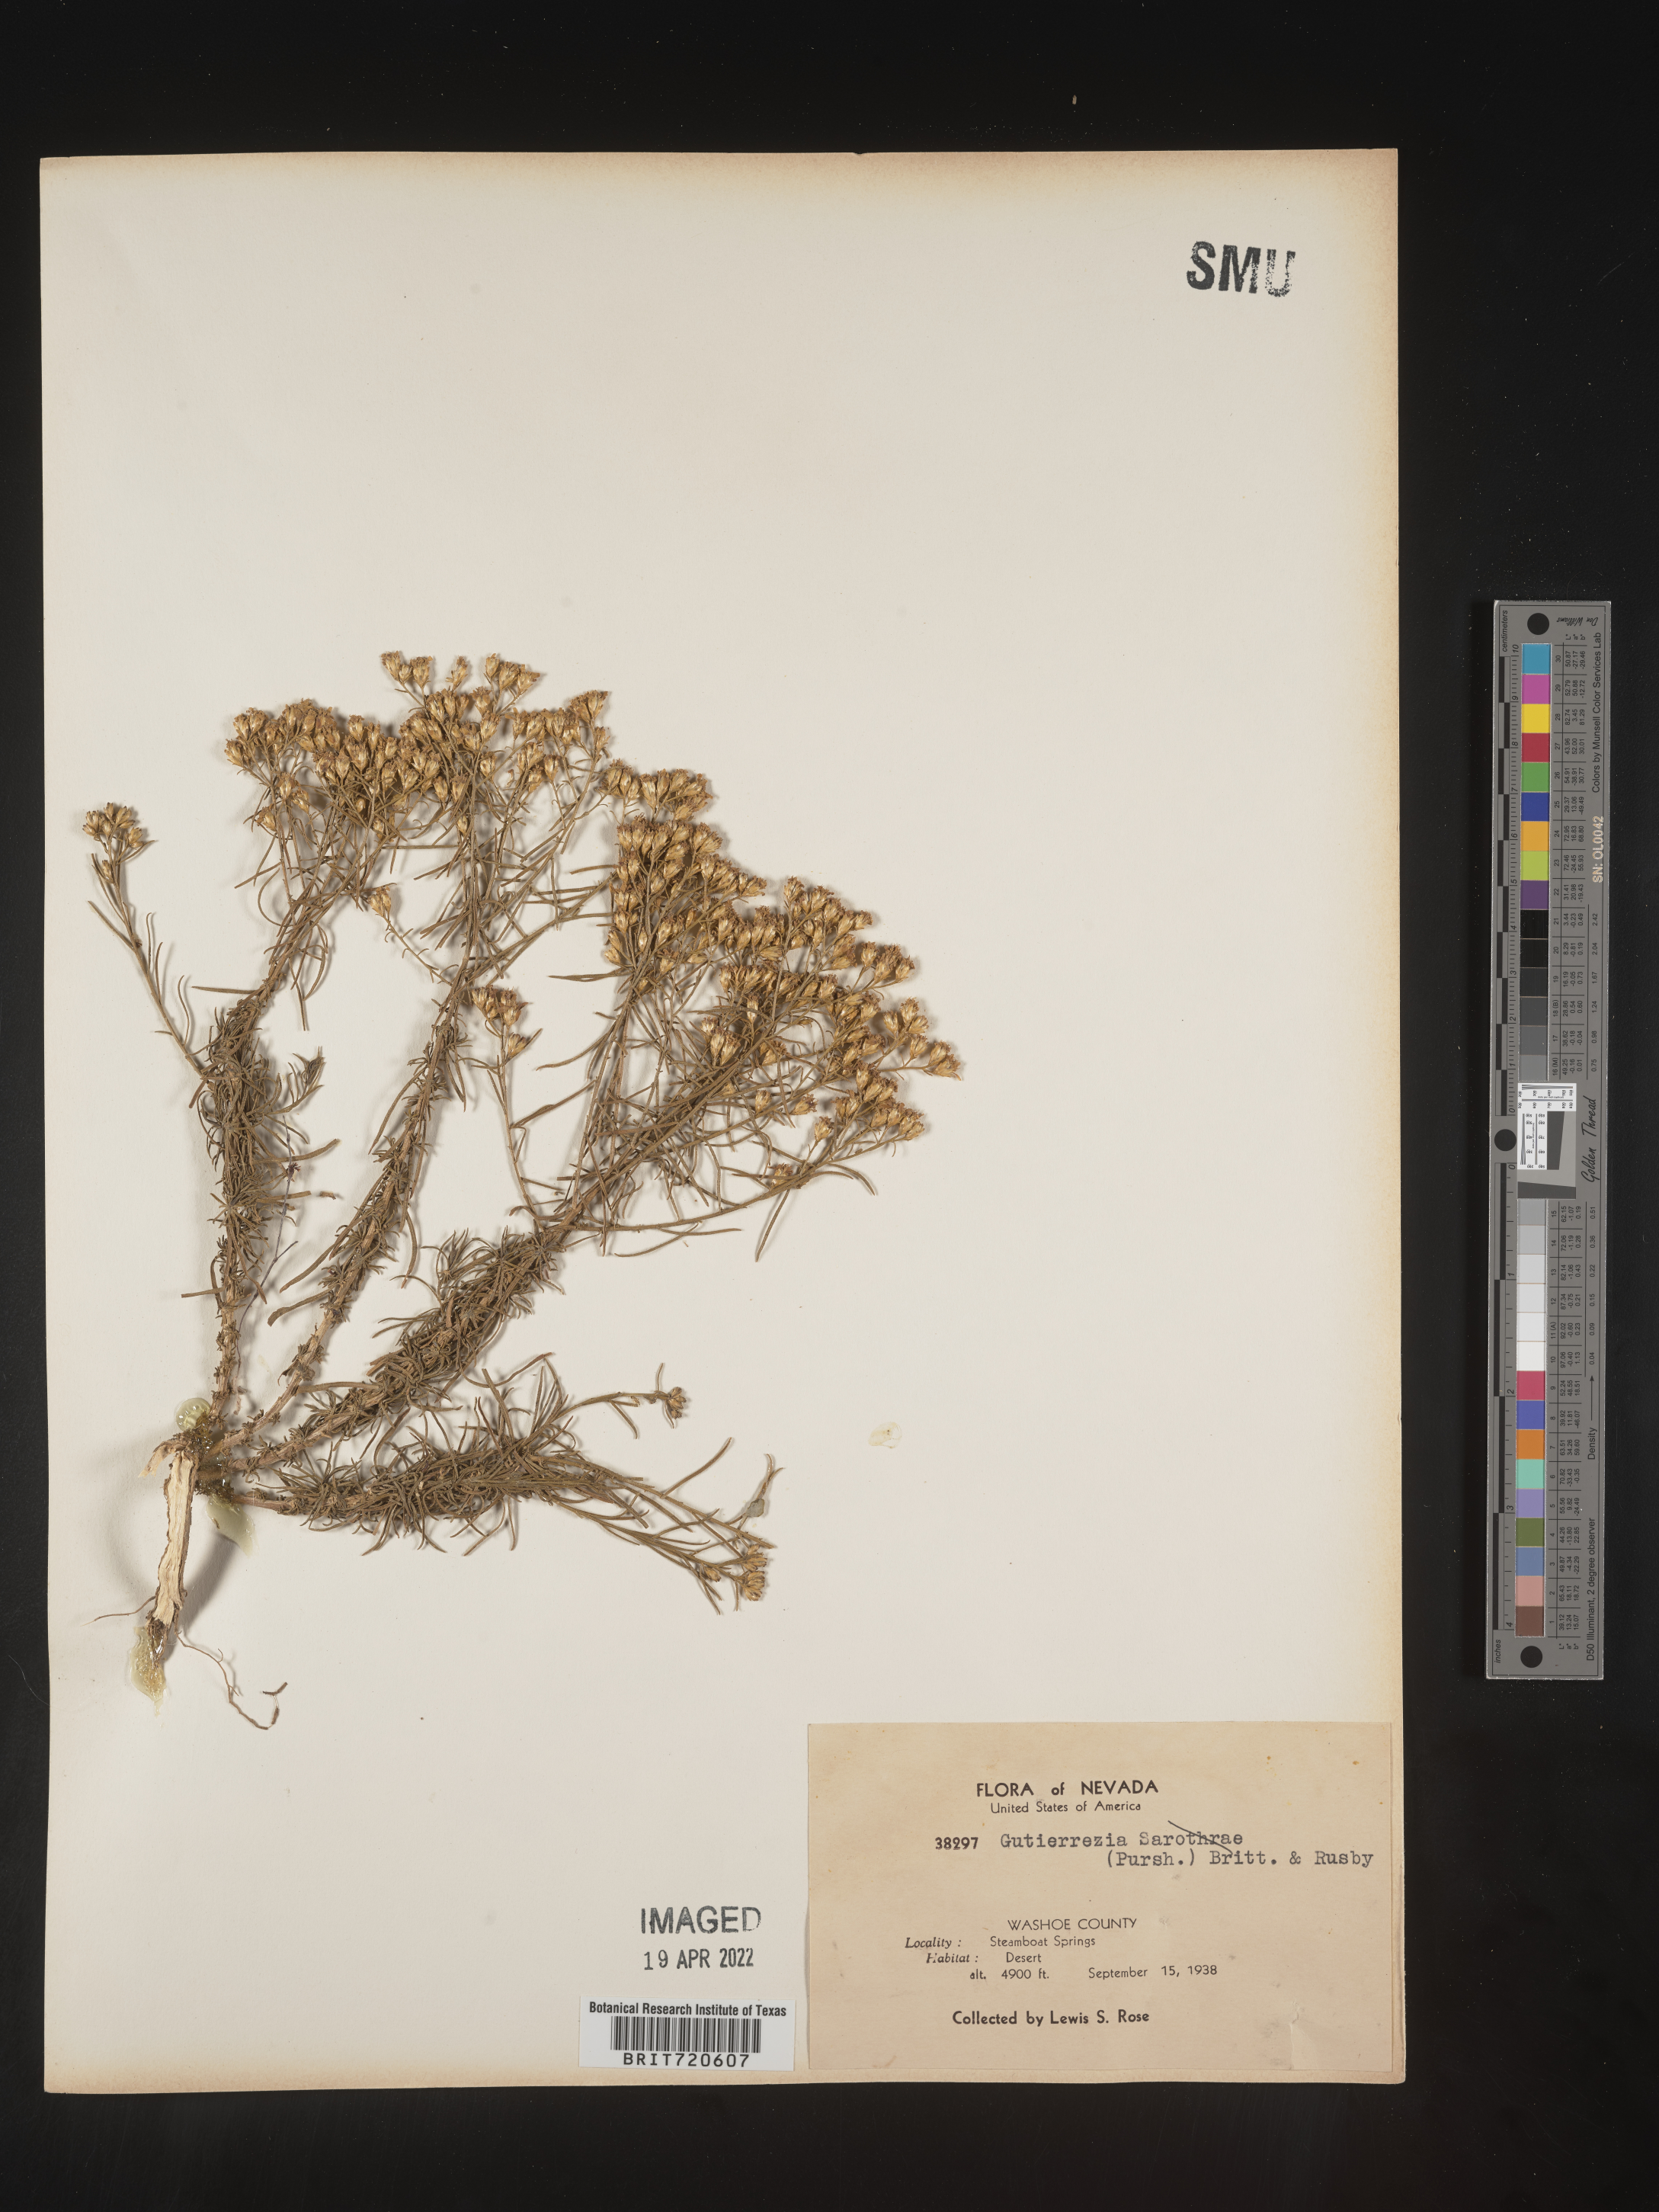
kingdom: Plantae
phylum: Tracheophyta
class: Magnoliopsida
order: Asterales
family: Asteraceae
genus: Gutierrezia
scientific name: Gutierrezia sarothrae
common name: Broom snakeweed
